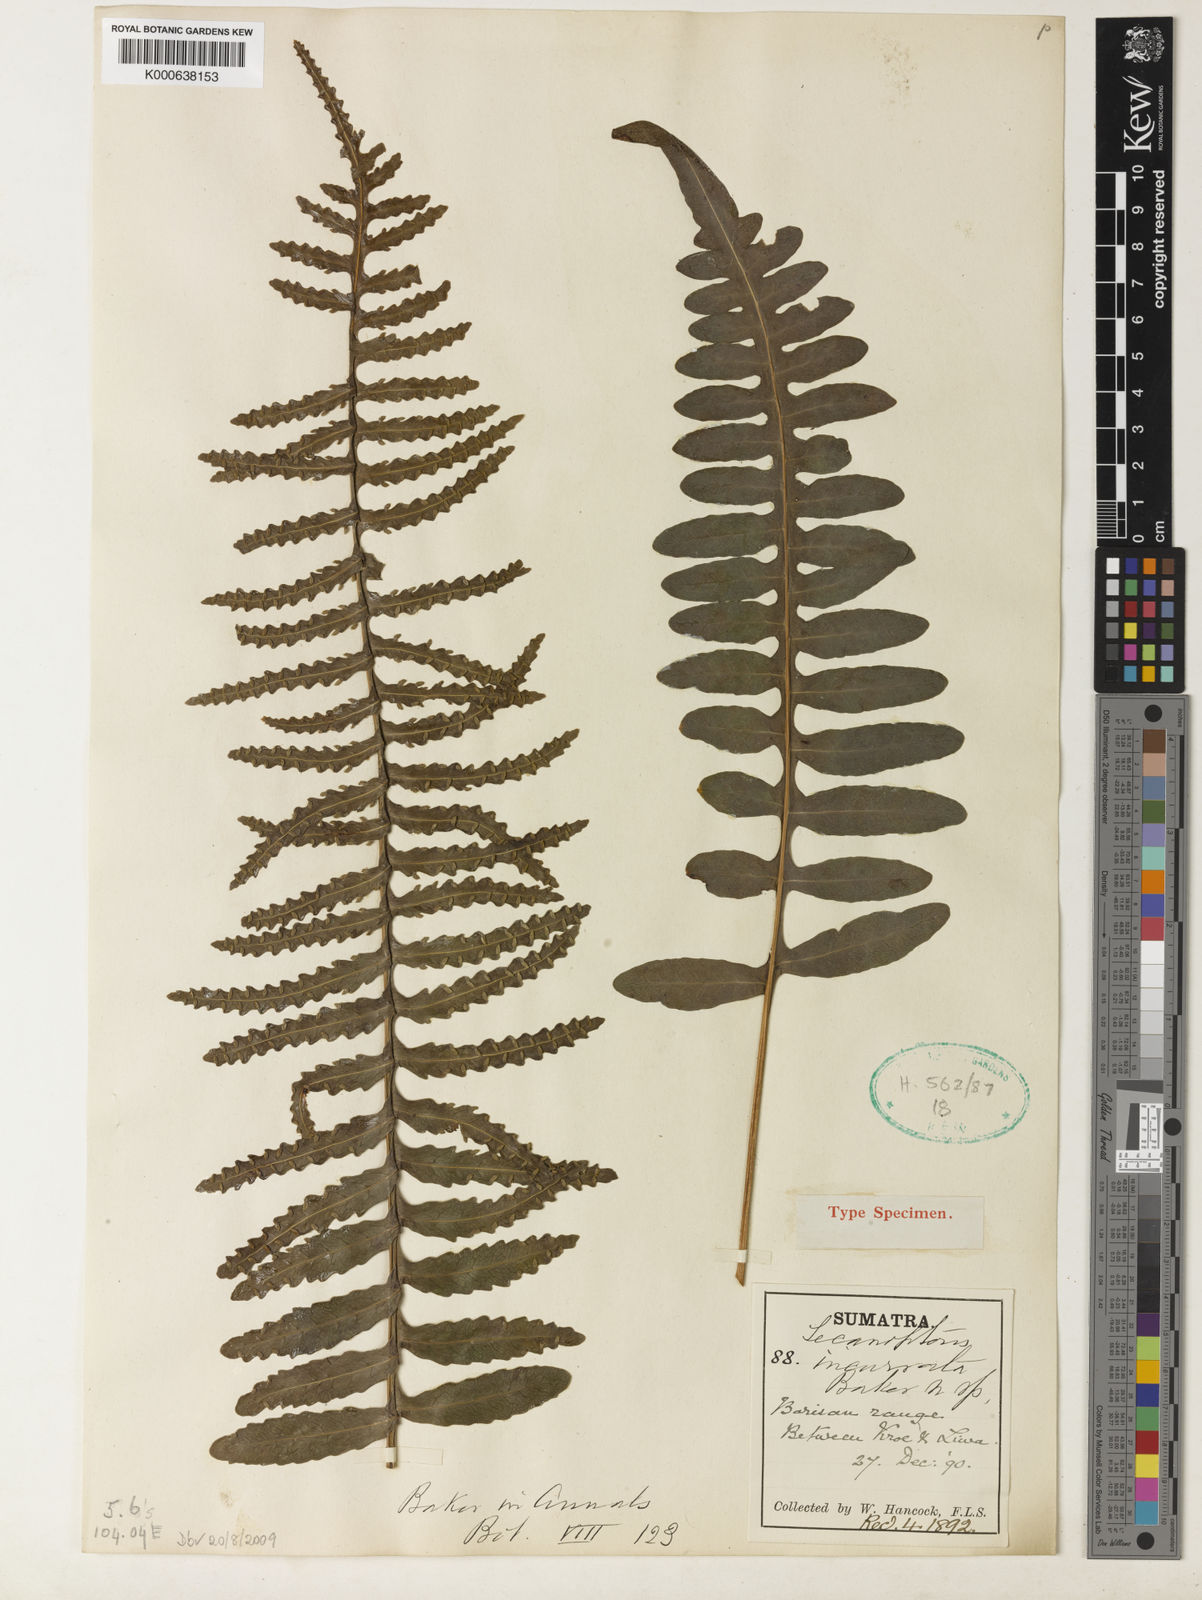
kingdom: Plantae
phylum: Tracheophyta
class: Polypodiopsida
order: Polypodiales
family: Polypodiaceae
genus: Lecanopteris
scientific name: Lecanopteris deparioides
